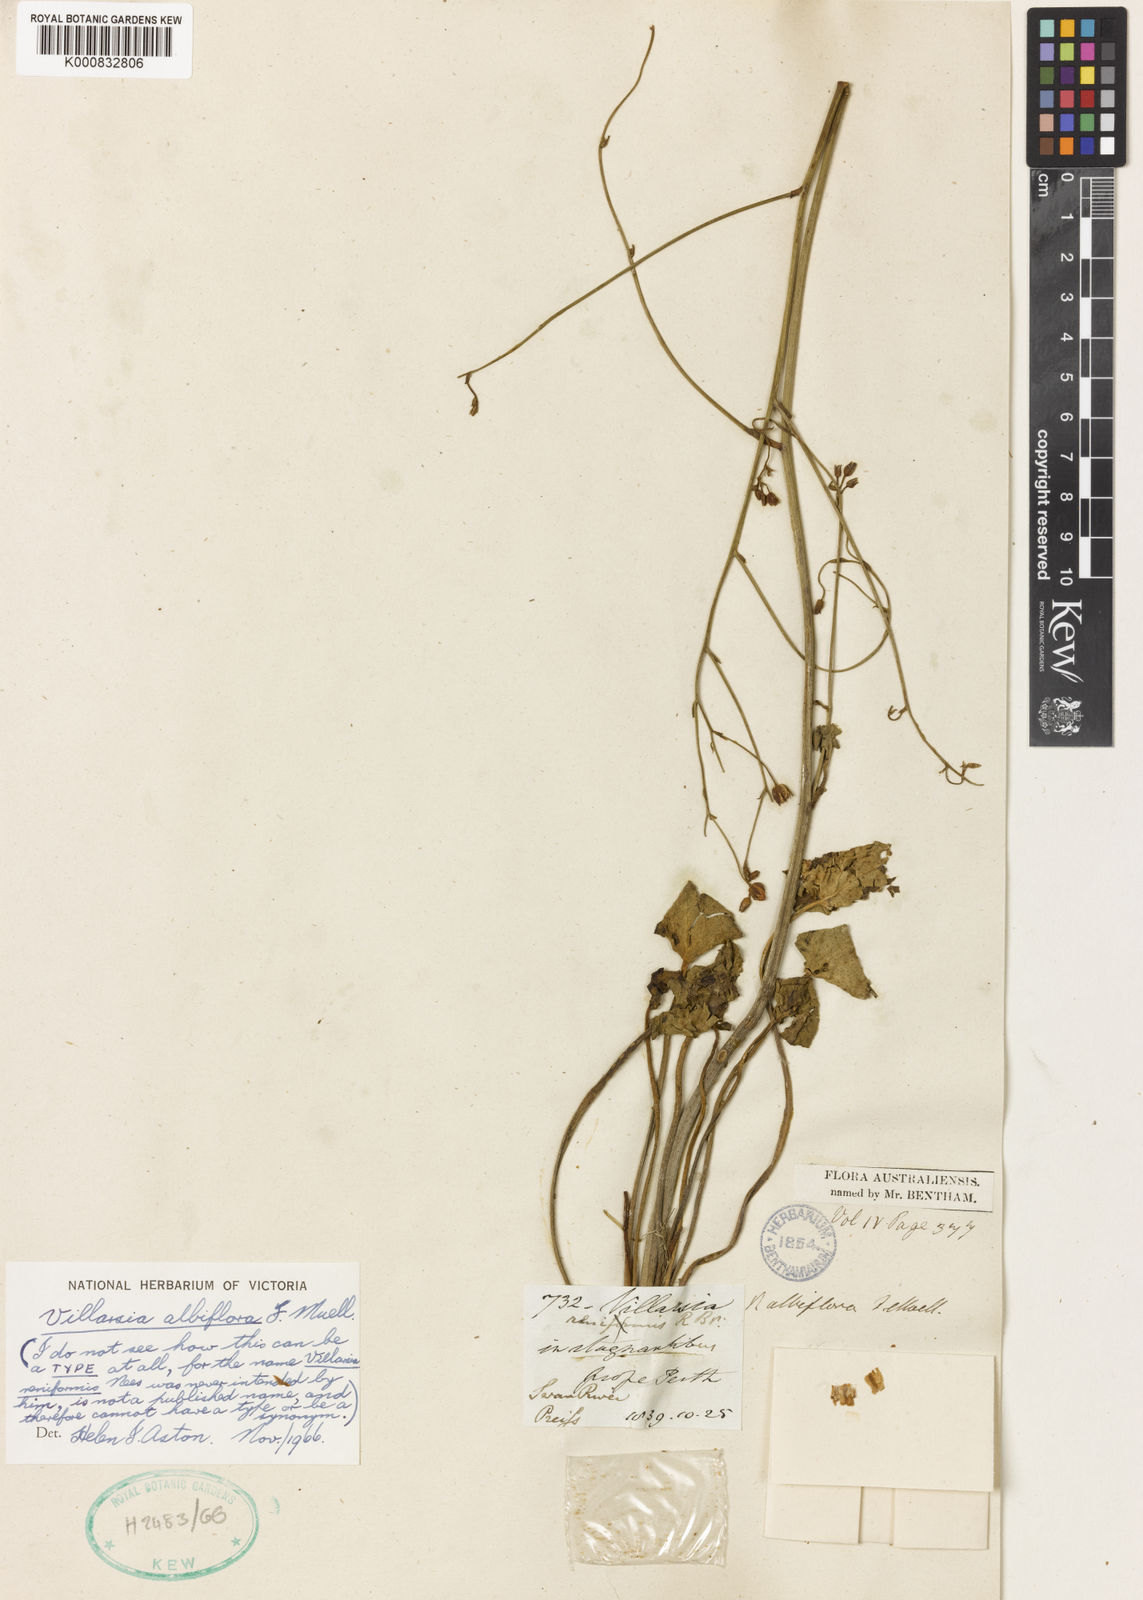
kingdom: Plantae
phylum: Tracheophyta
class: Magnoliopsida
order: Asterales
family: Menyanthaceae
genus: Ornduffia
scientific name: Ornduffia albiflora
